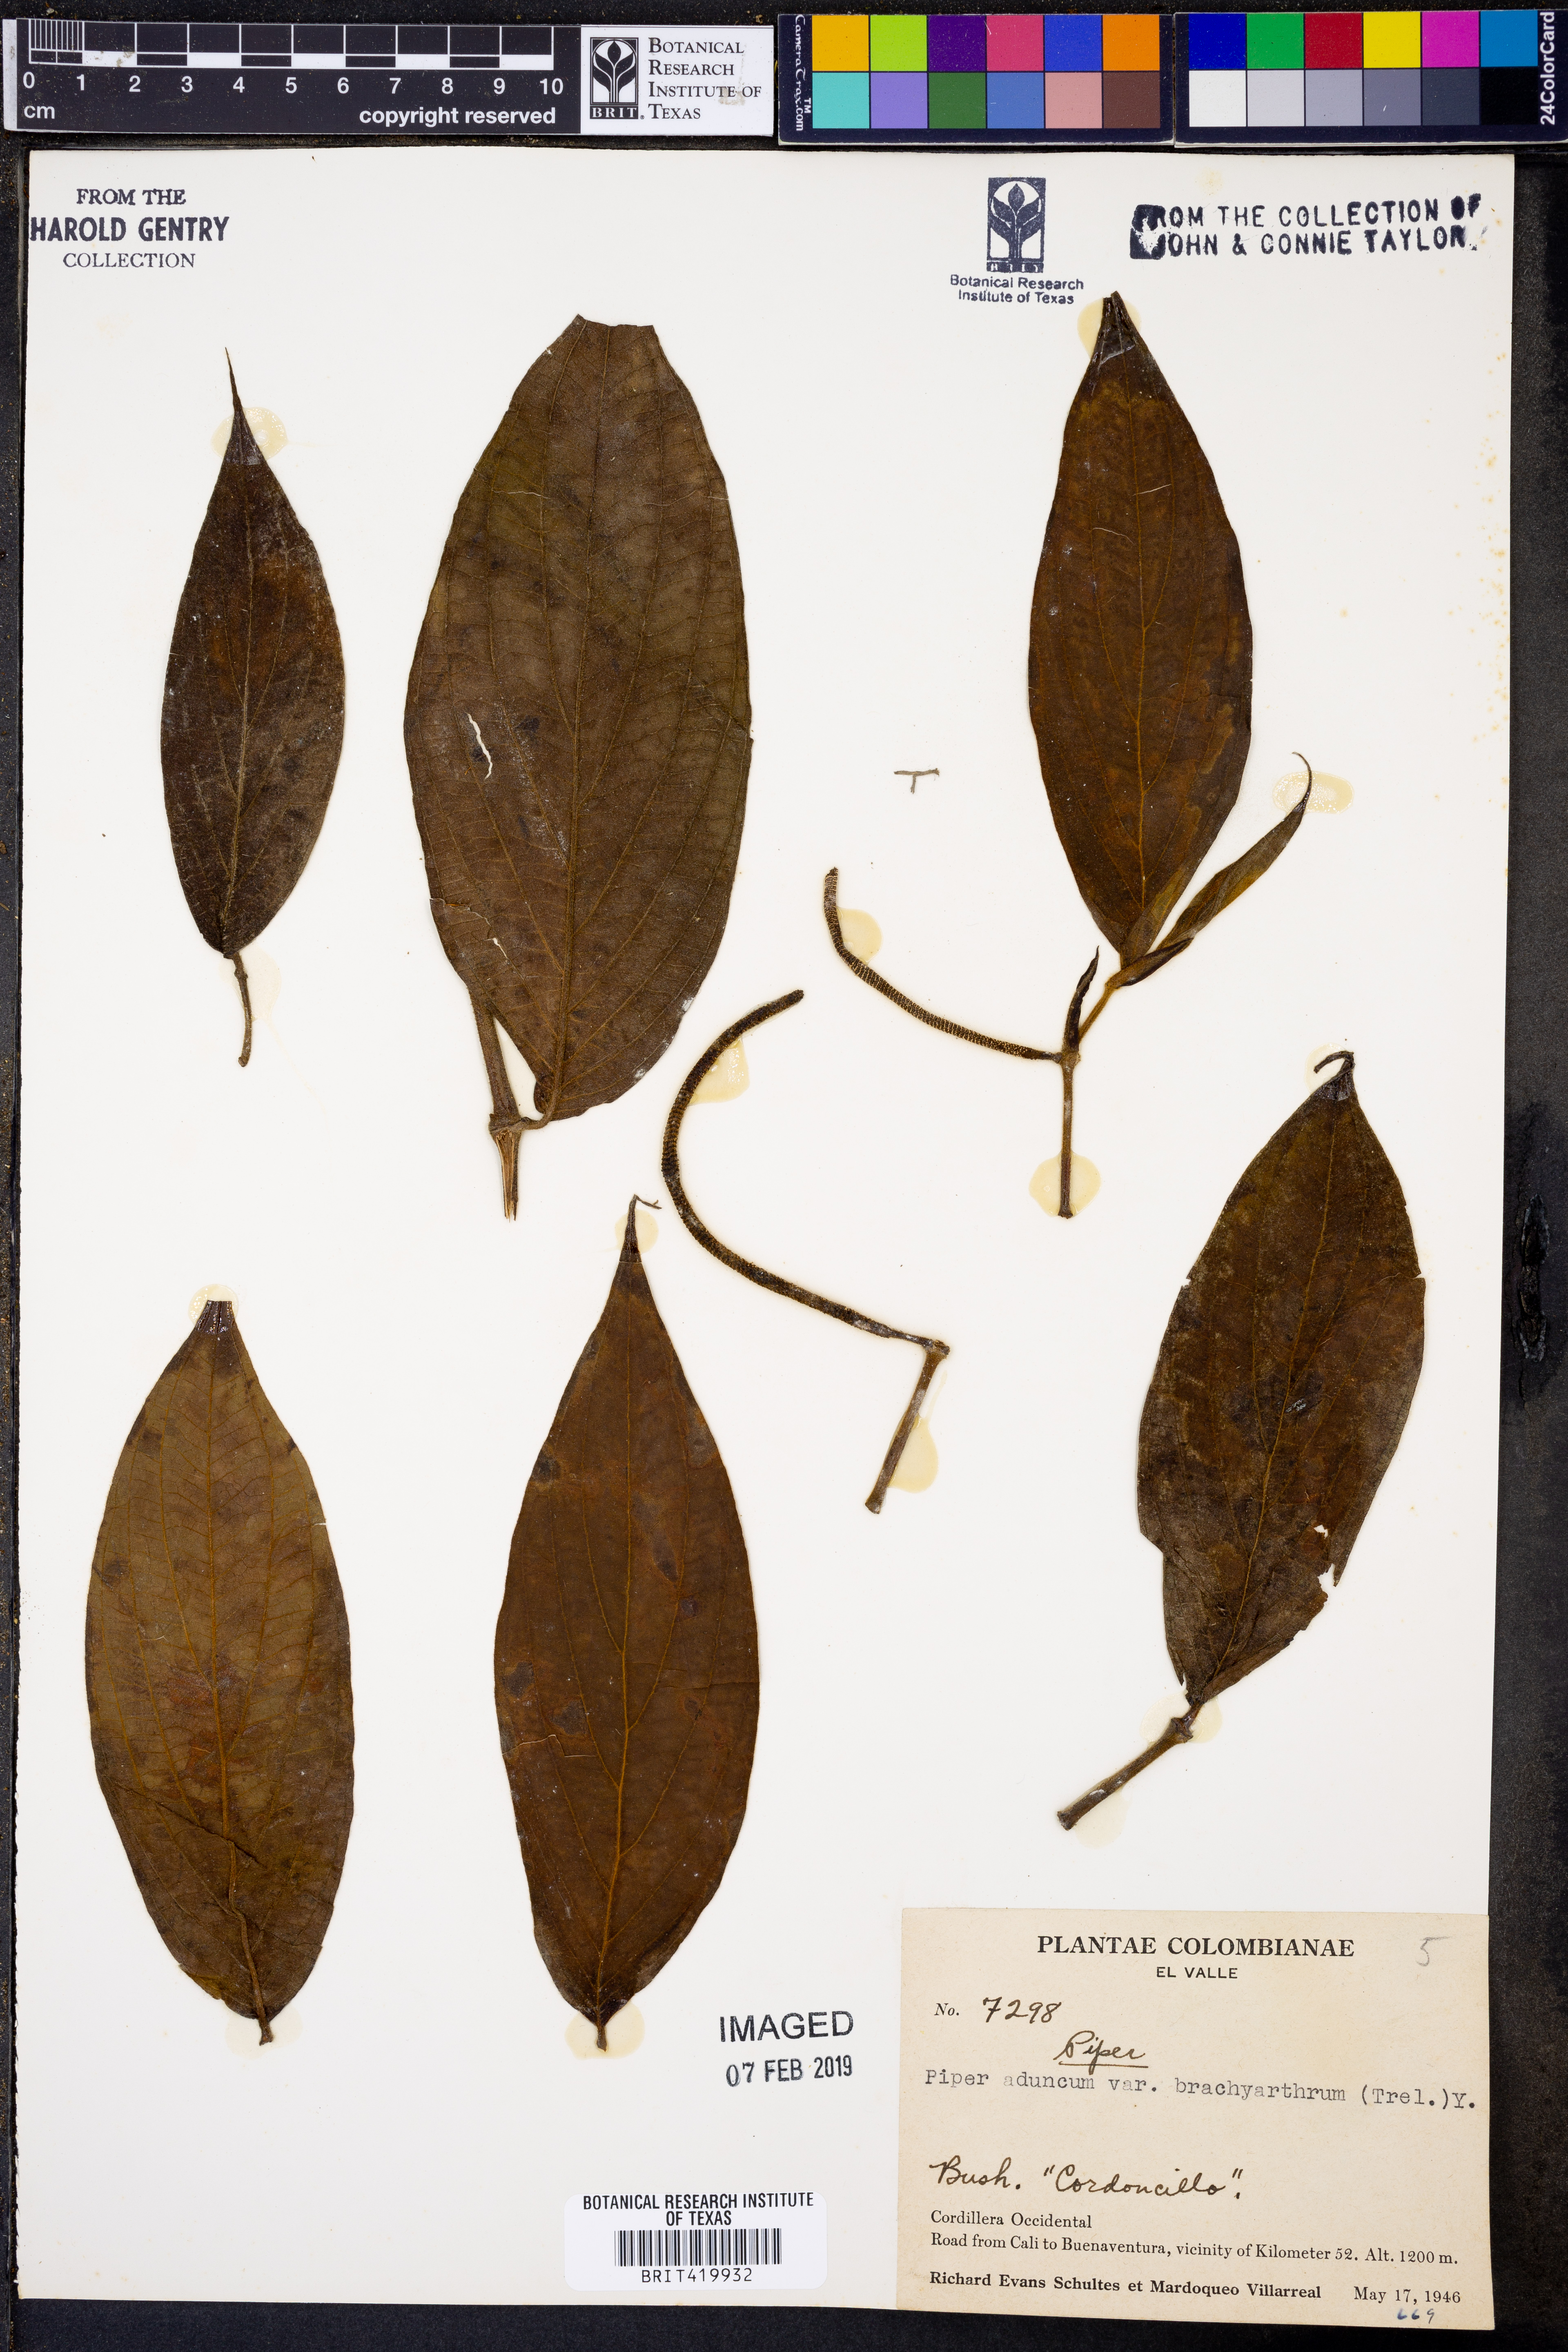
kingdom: Plantae
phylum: Tracheophyta
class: Magnoliopsida
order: Piperales
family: Piperaceae
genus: Piper
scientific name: Piper aduncum
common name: Spiked pepper
